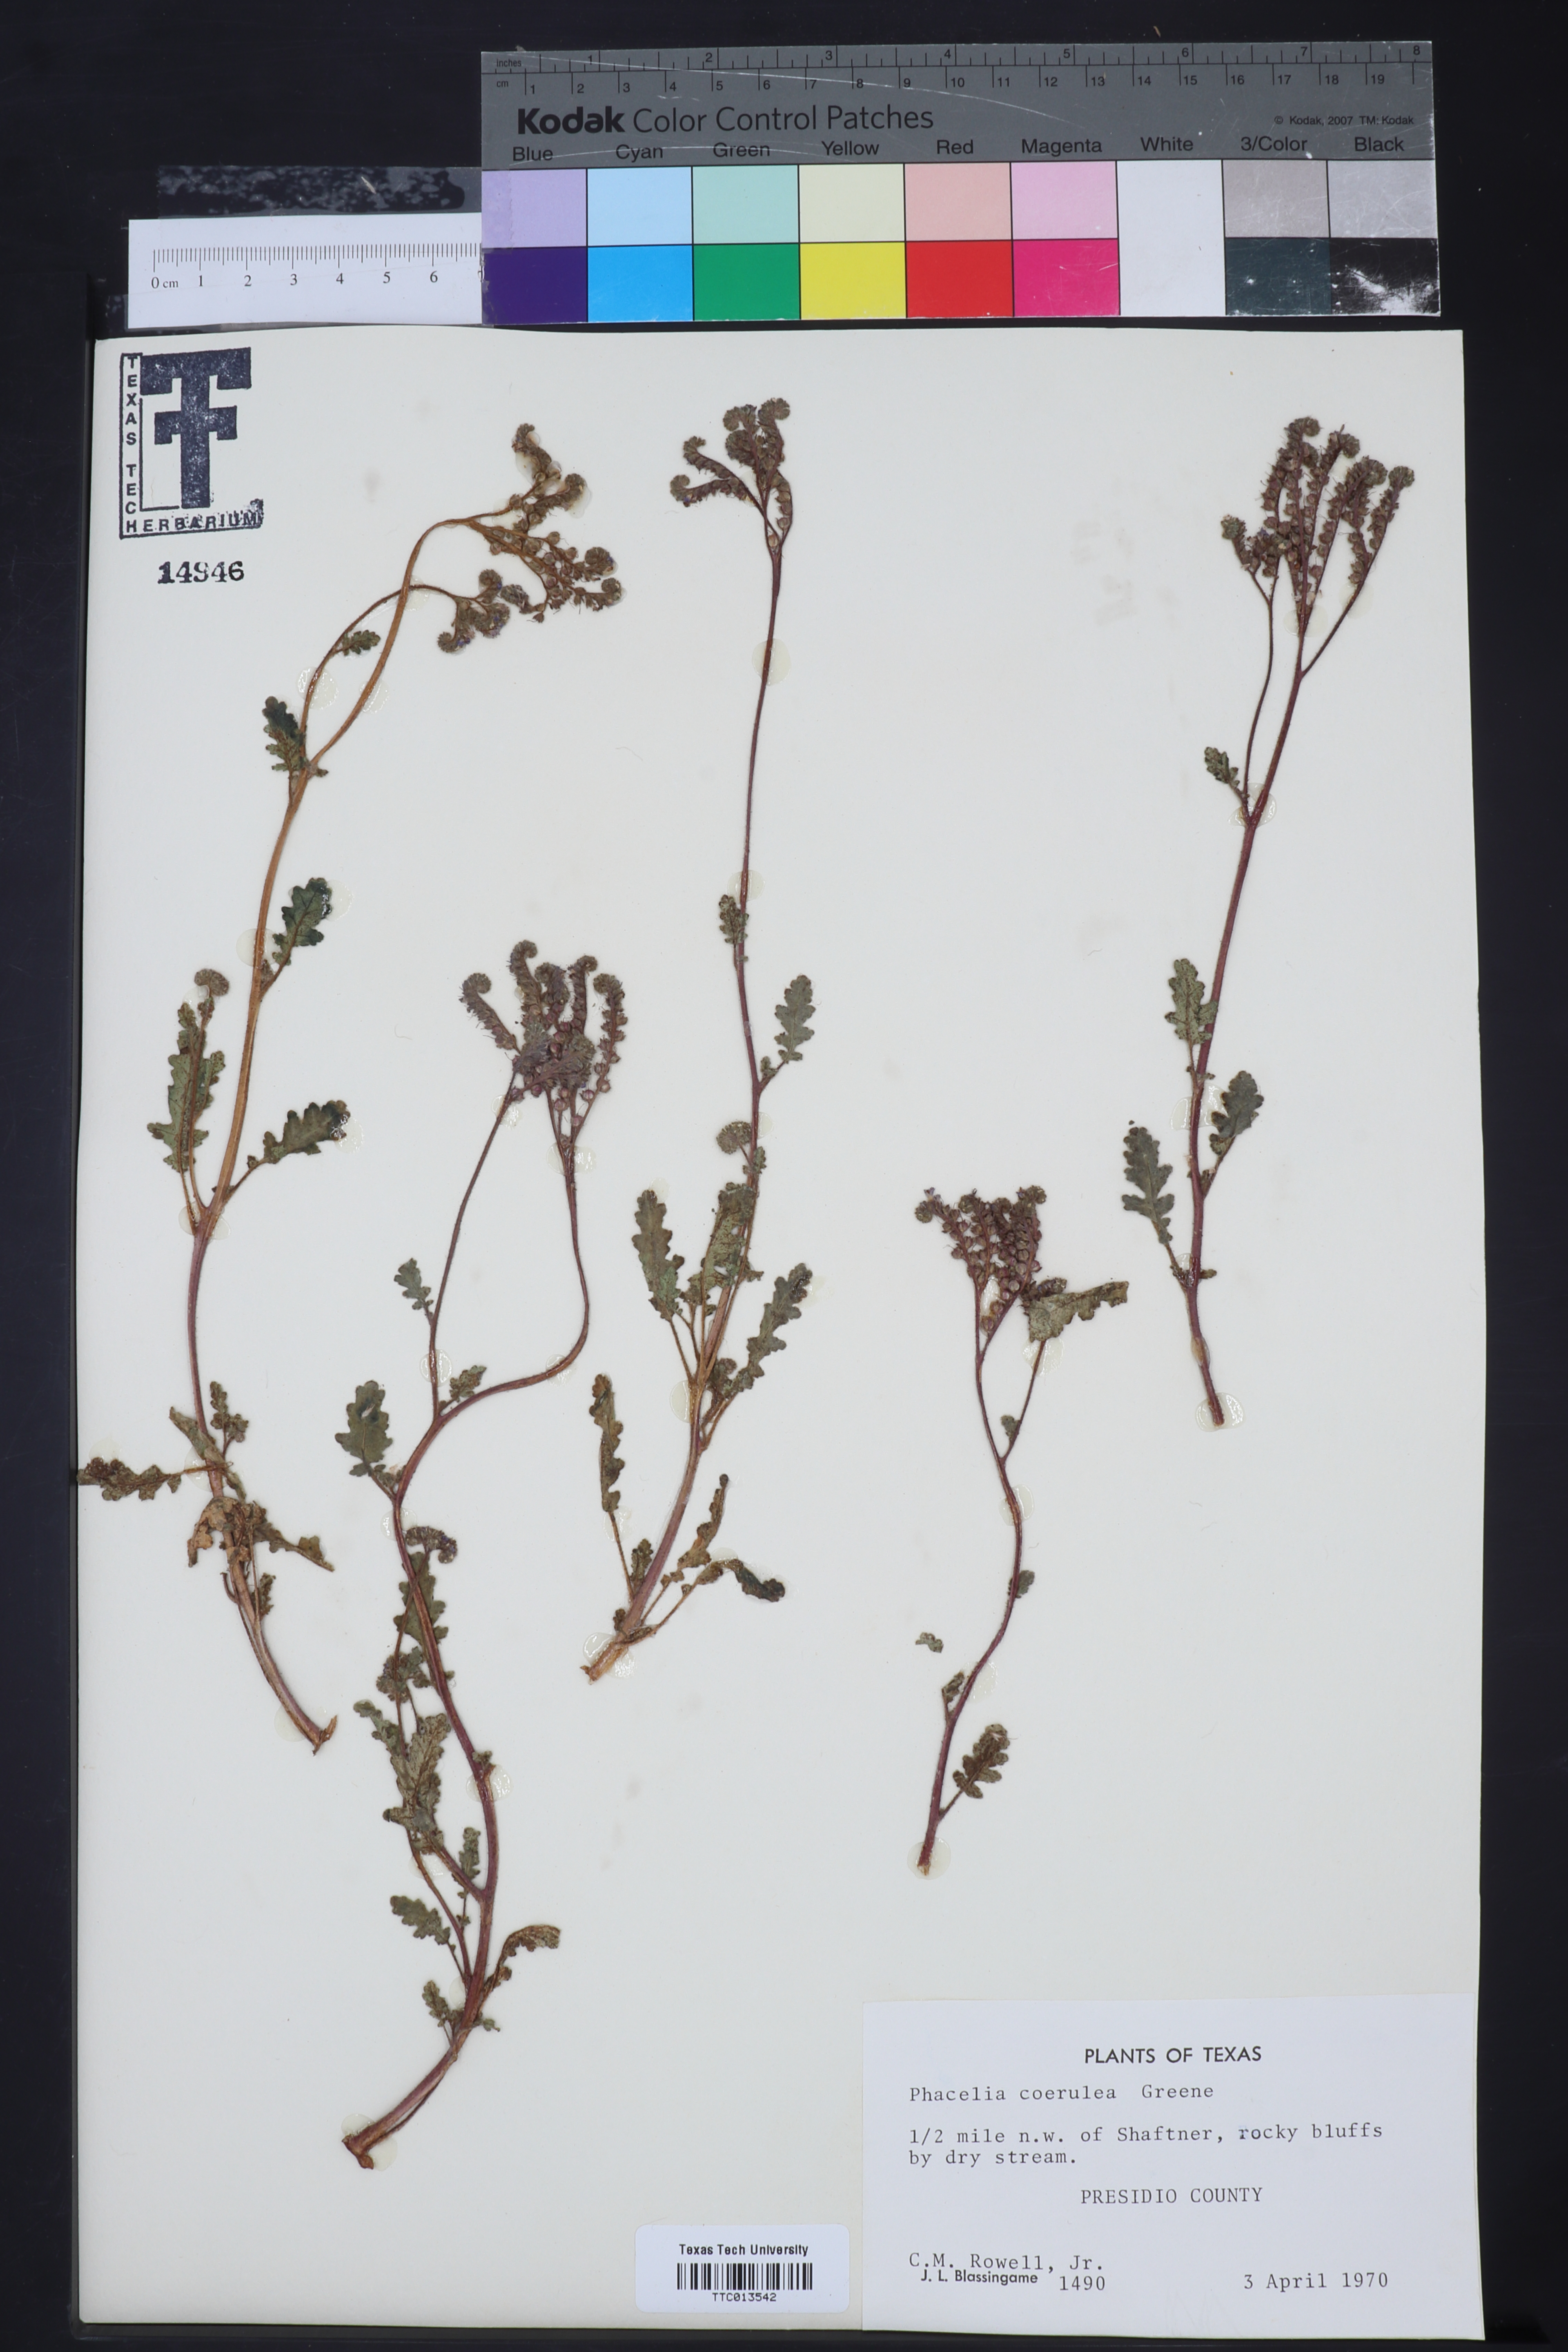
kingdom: Plantae
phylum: Tracheophyta
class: Magnoliopsida
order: Boraginales
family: Hydrophyllaceae
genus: Phacelia
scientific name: Phacelia coerulea
